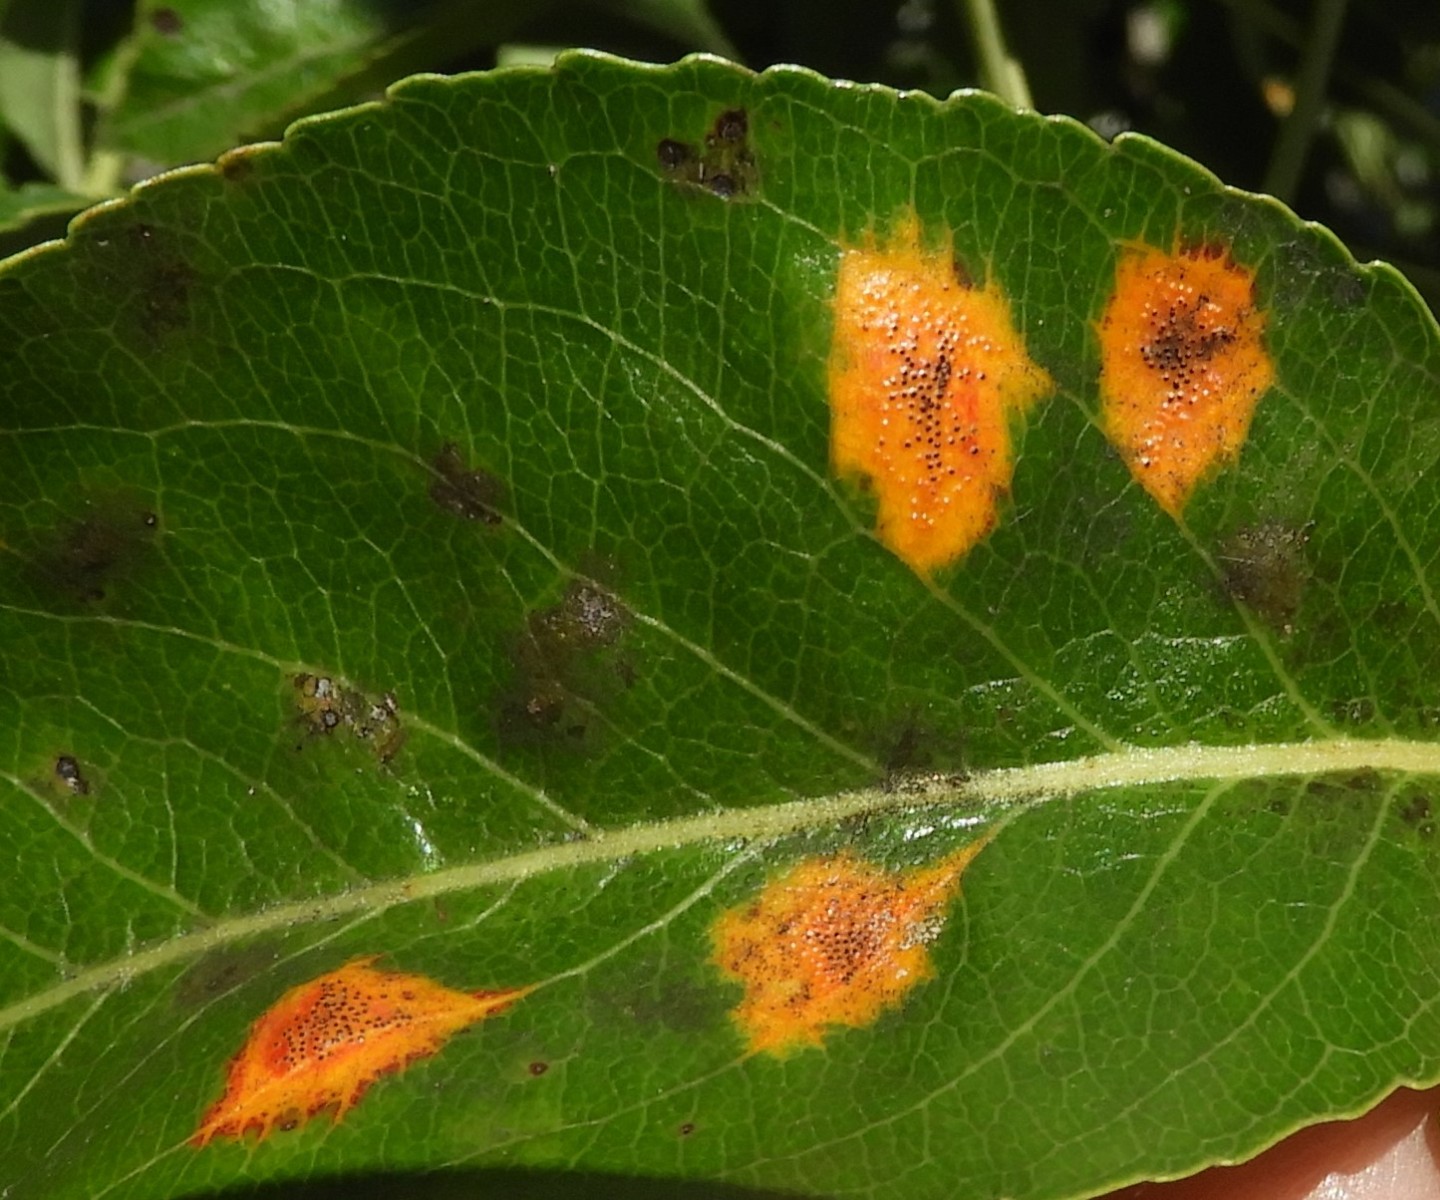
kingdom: Fungi
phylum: Basidiomycota
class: Pucciniomycetes
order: Pucciniales
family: Gymnosporangiaceae
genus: Gymnosporangium
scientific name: Gymnosporangium sabinae
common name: pæregitter-bævrerust
